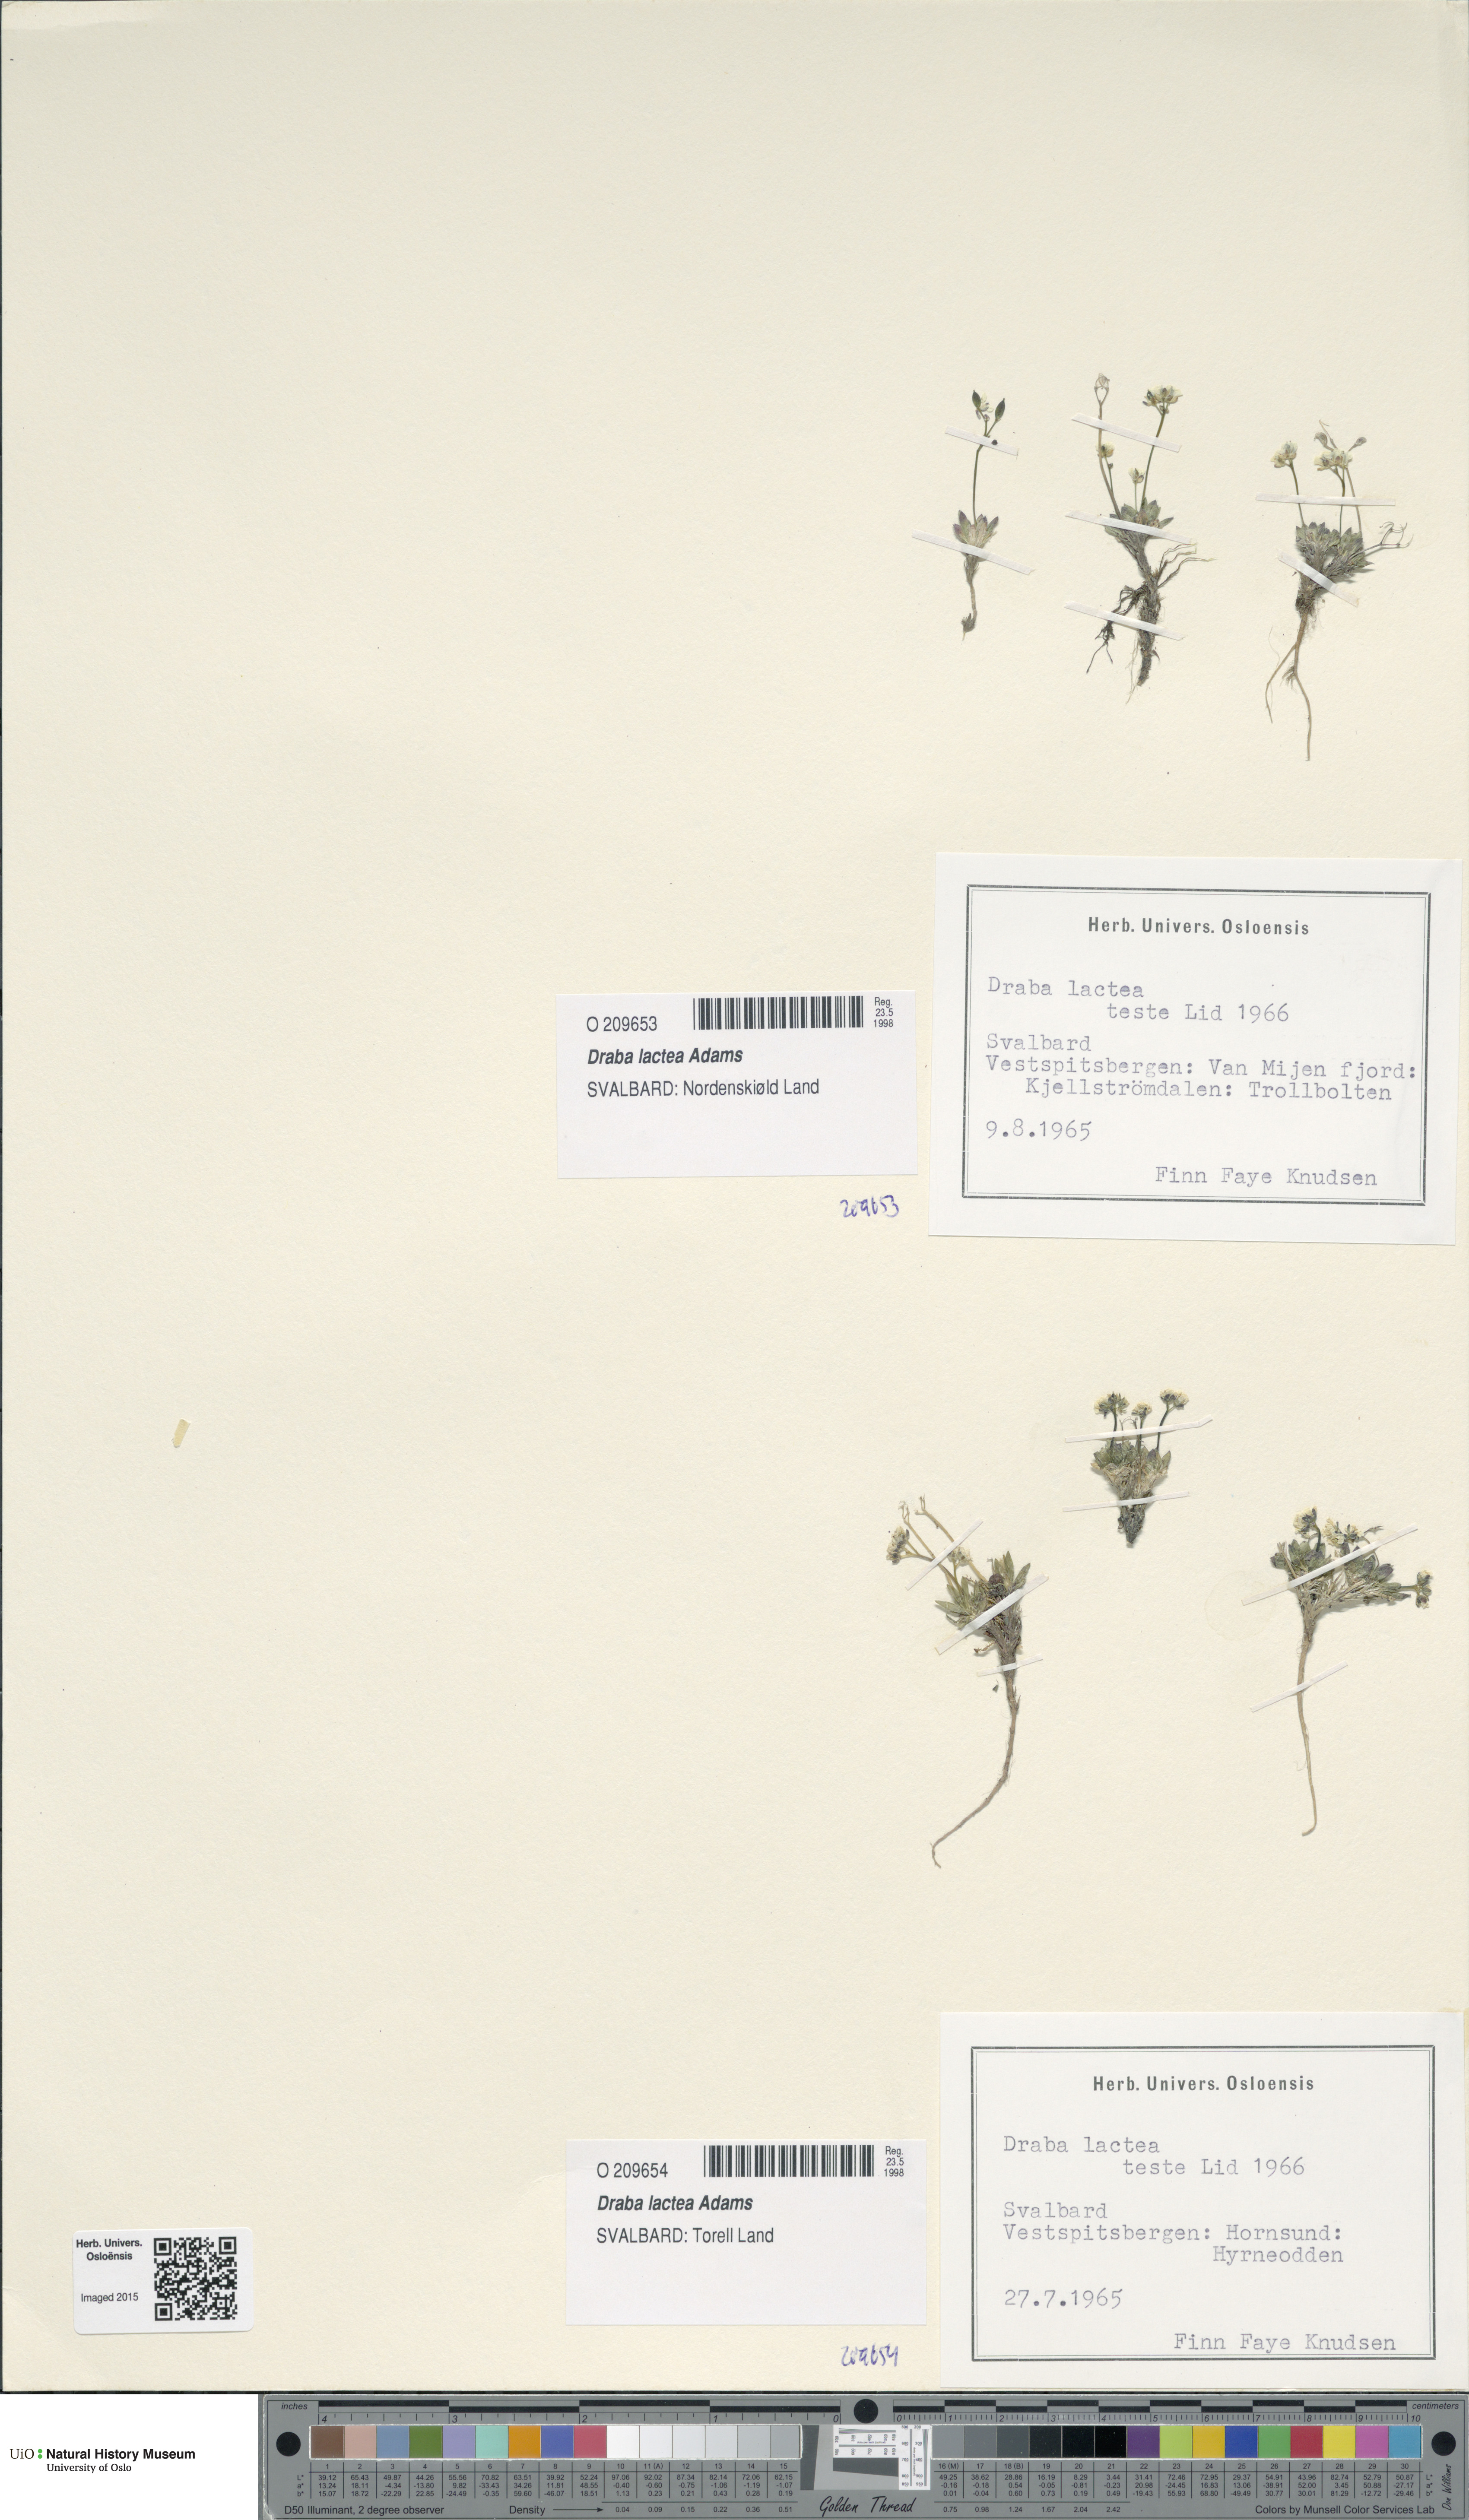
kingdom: Plantae
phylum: Tracheophyta
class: Magnoliopsida
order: Brassicales
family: Brassicaceae
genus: Draba
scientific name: Draba lactea
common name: Milky draba
